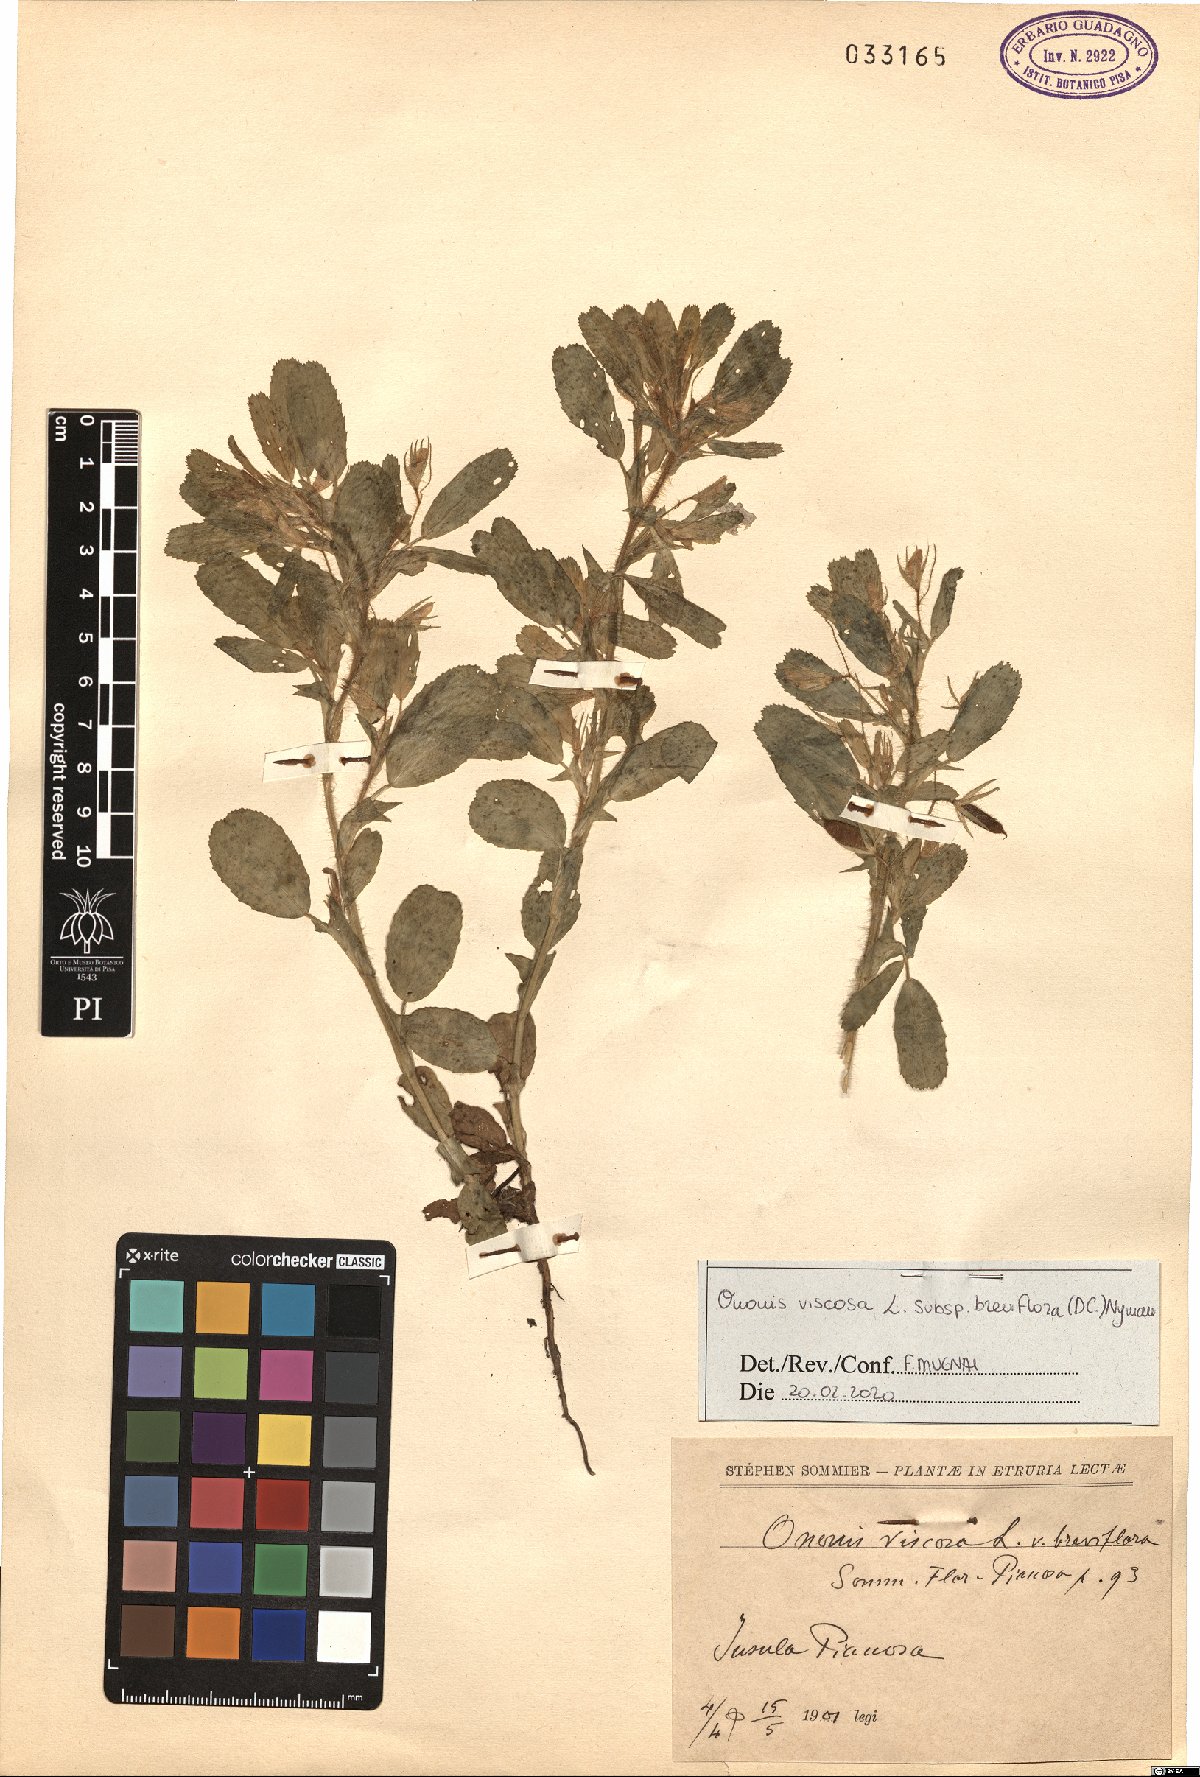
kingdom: Plantae
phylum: Tracheophyta
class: Magnoliopsida
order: Fabales
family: Fabaceae
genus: Ononis
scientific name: Ononis viscosa
